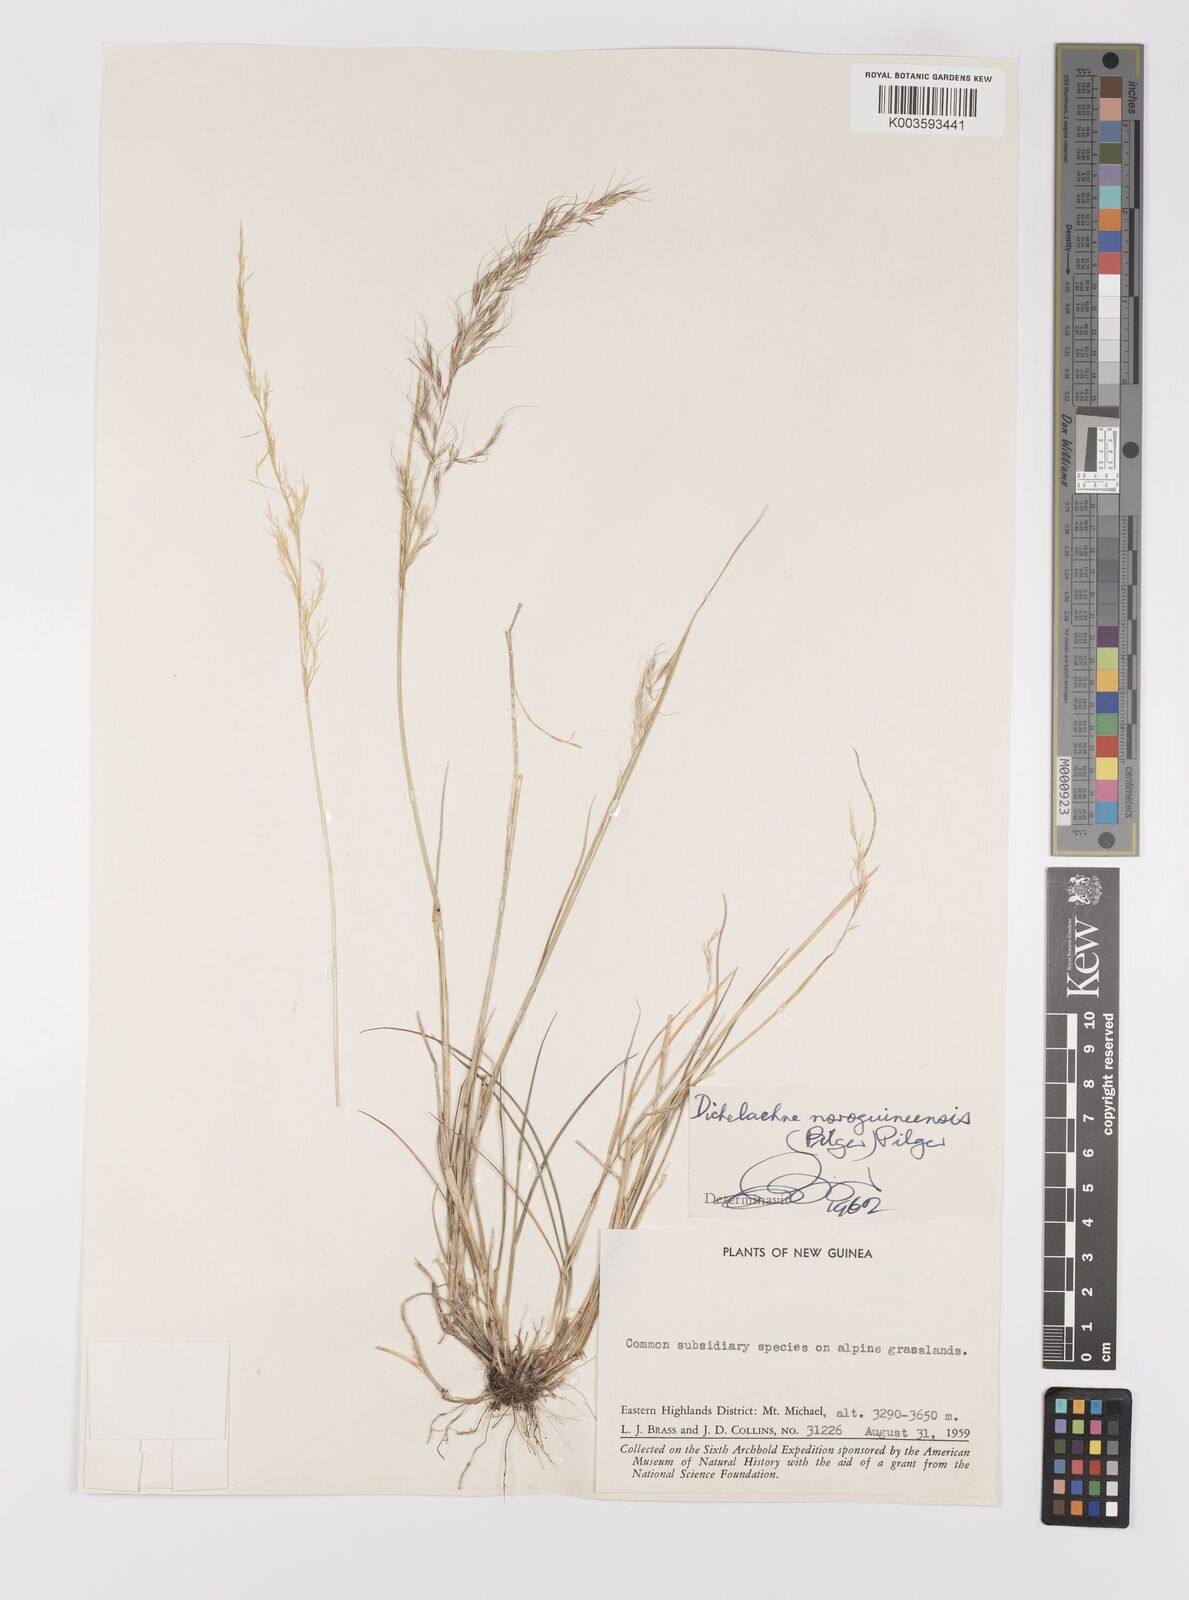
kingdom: Plantae
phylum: Tracheophyta
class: Liliopsida
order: Poales
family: Poaceae
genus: Dichelachne
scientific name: Dichelachne rara
